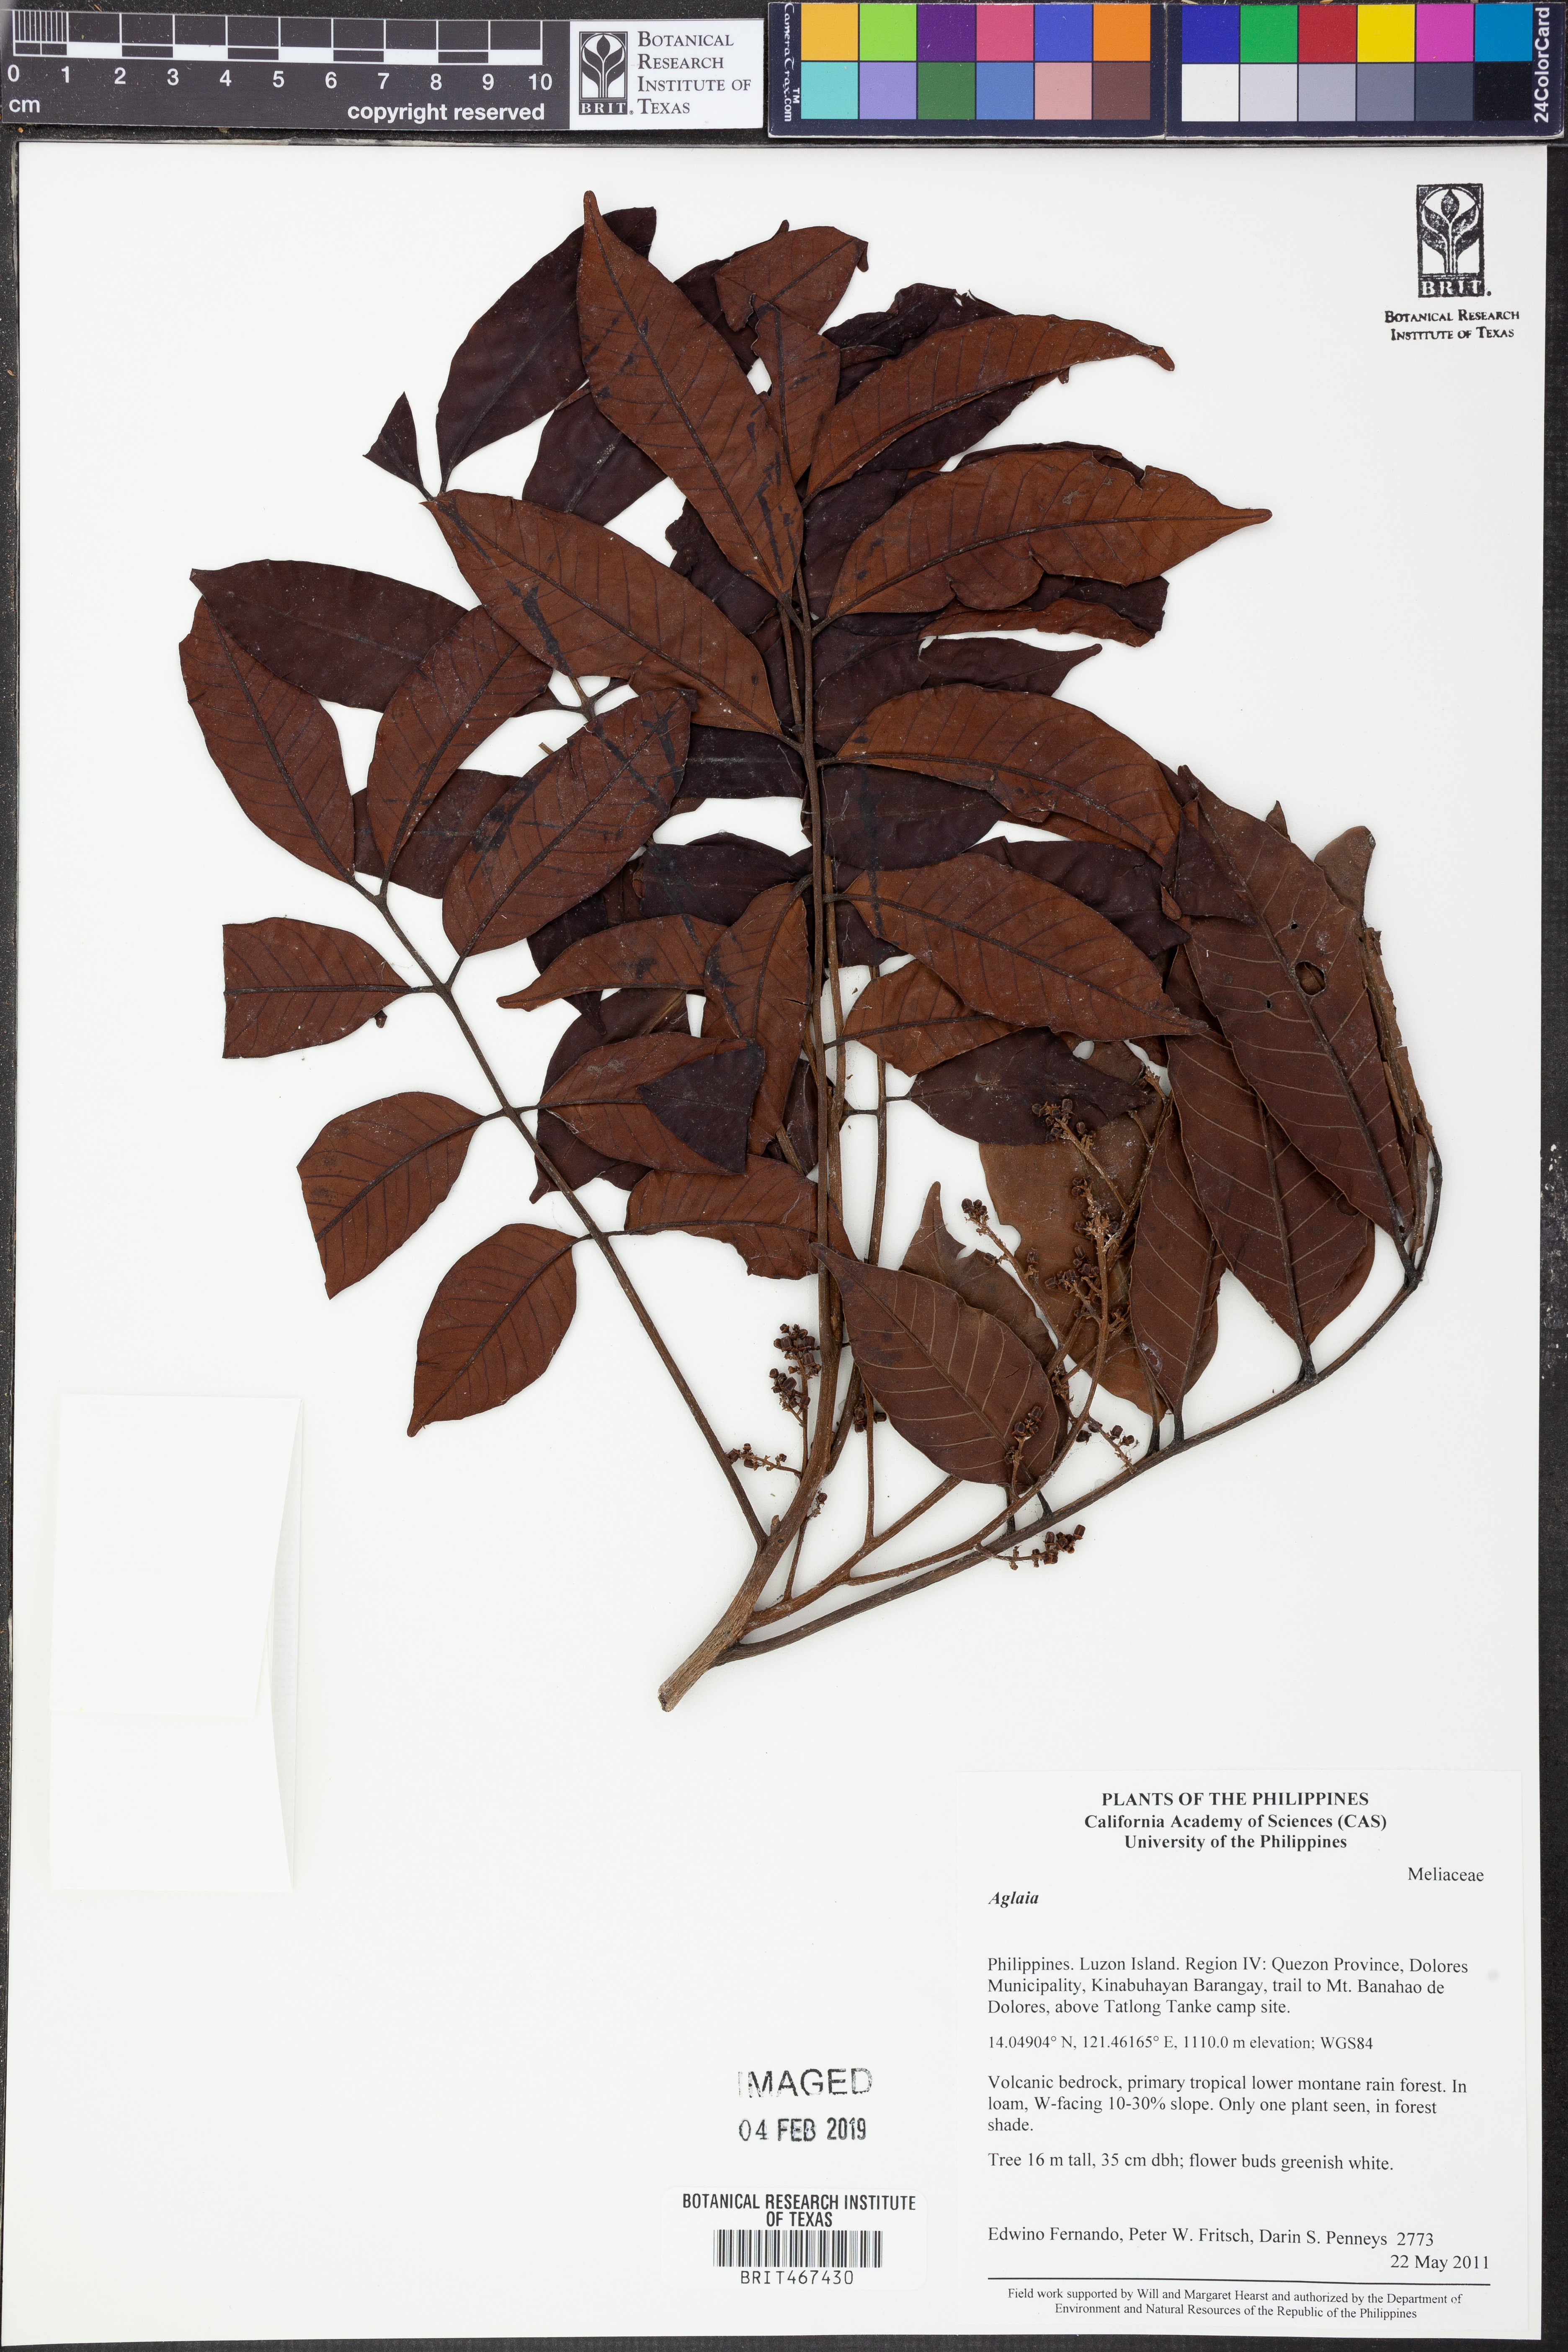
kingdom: Plantae
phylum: Tracheophyta
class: Magnoliopsida
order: Sapindales
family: Meliaceae
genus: Aglaia
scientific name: Aglaia
